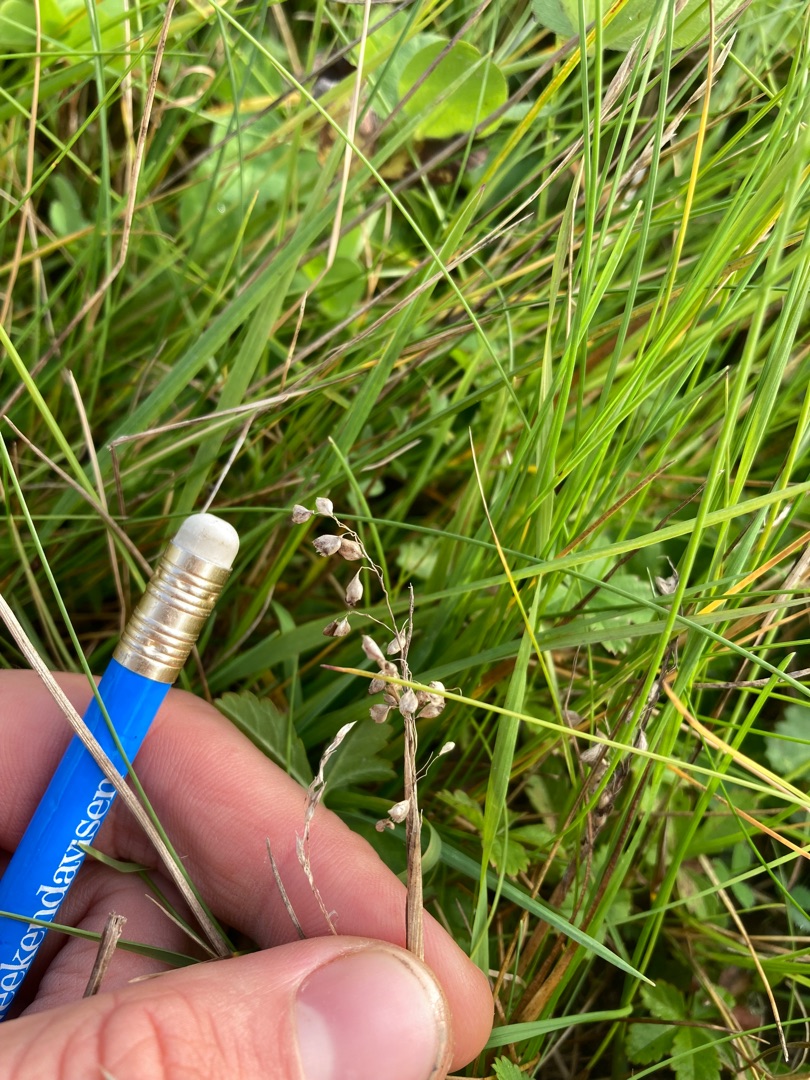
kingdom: Plantae
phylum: Tracheophyta
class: Liliopsida
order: Poales
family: Poaceae
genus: Briza
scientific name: Briza media
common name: Hjertegræs
